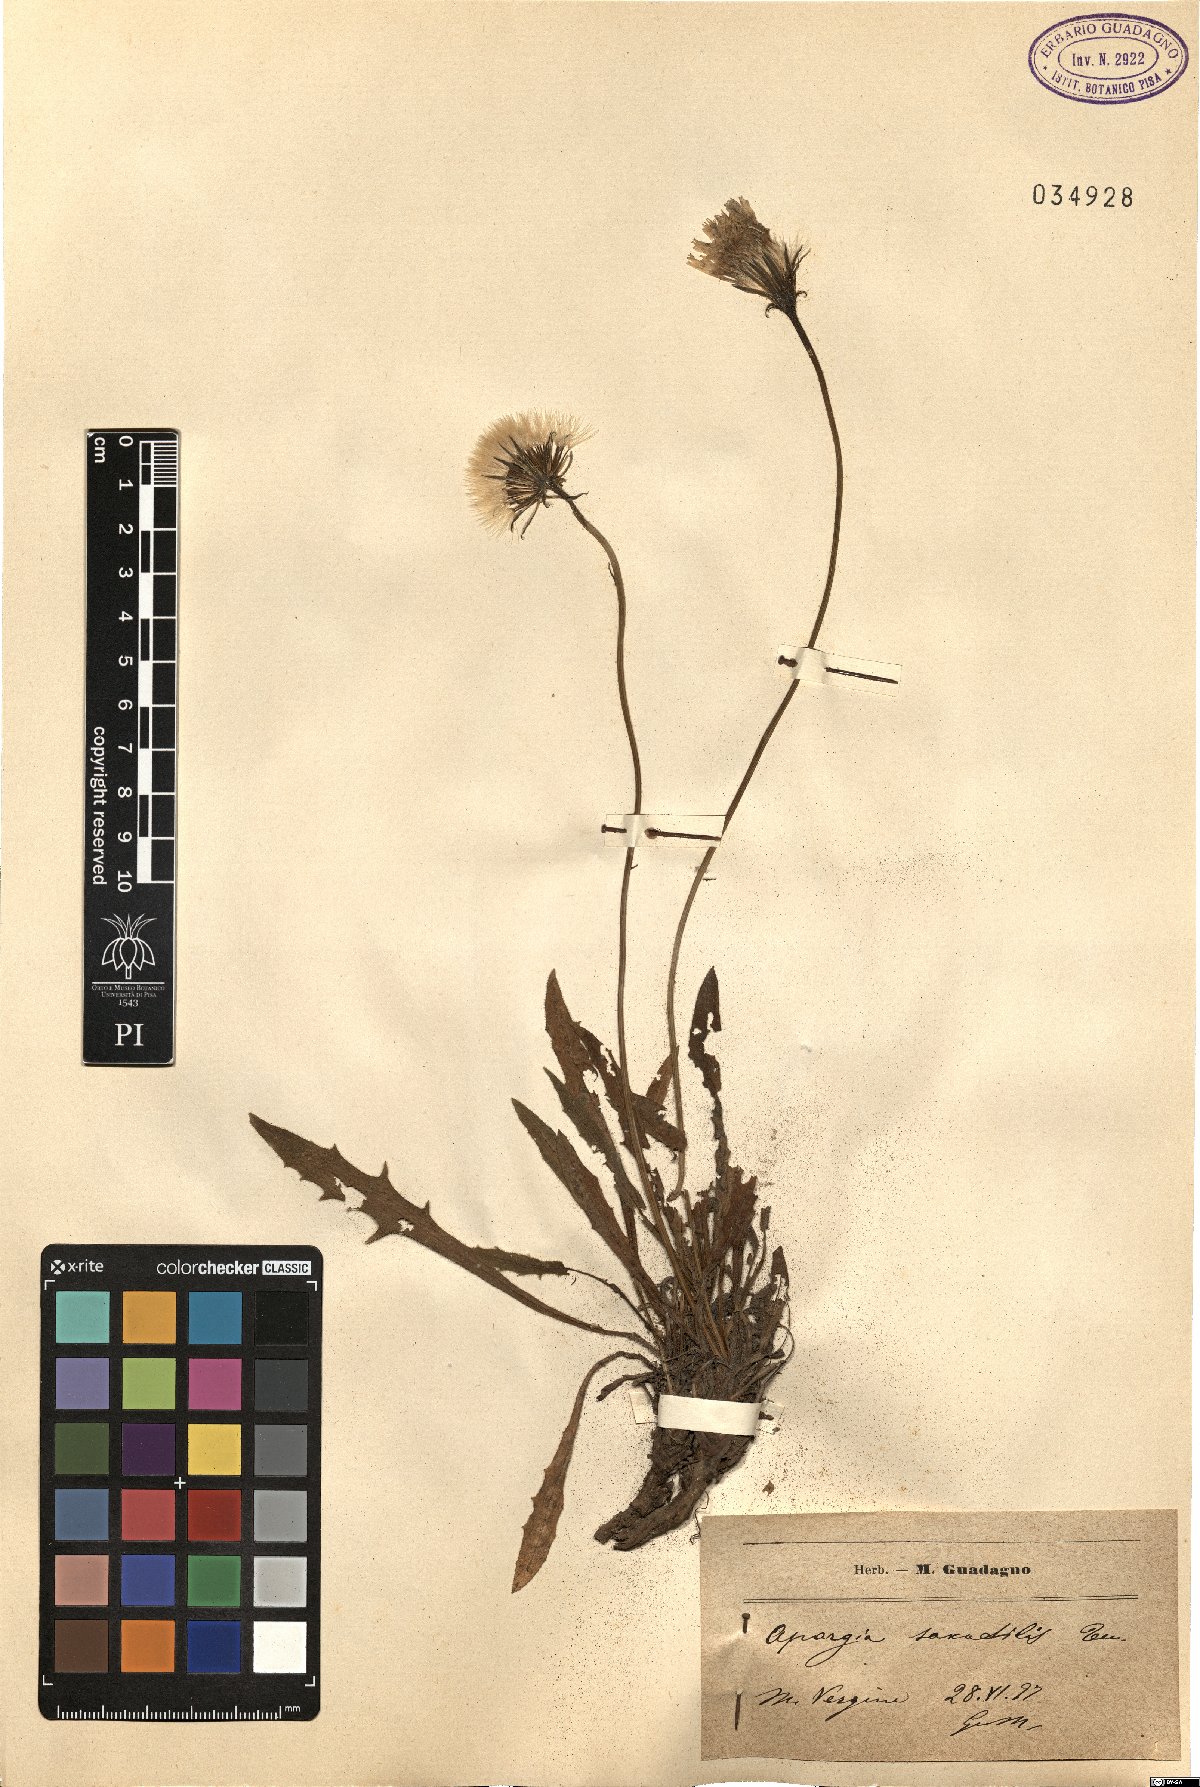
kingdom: Plantae
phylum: Tracheophyta
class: Magnoliopsida
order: Asterales
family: Asteraceae
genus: Leontodon
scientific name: Leontodon crispus
